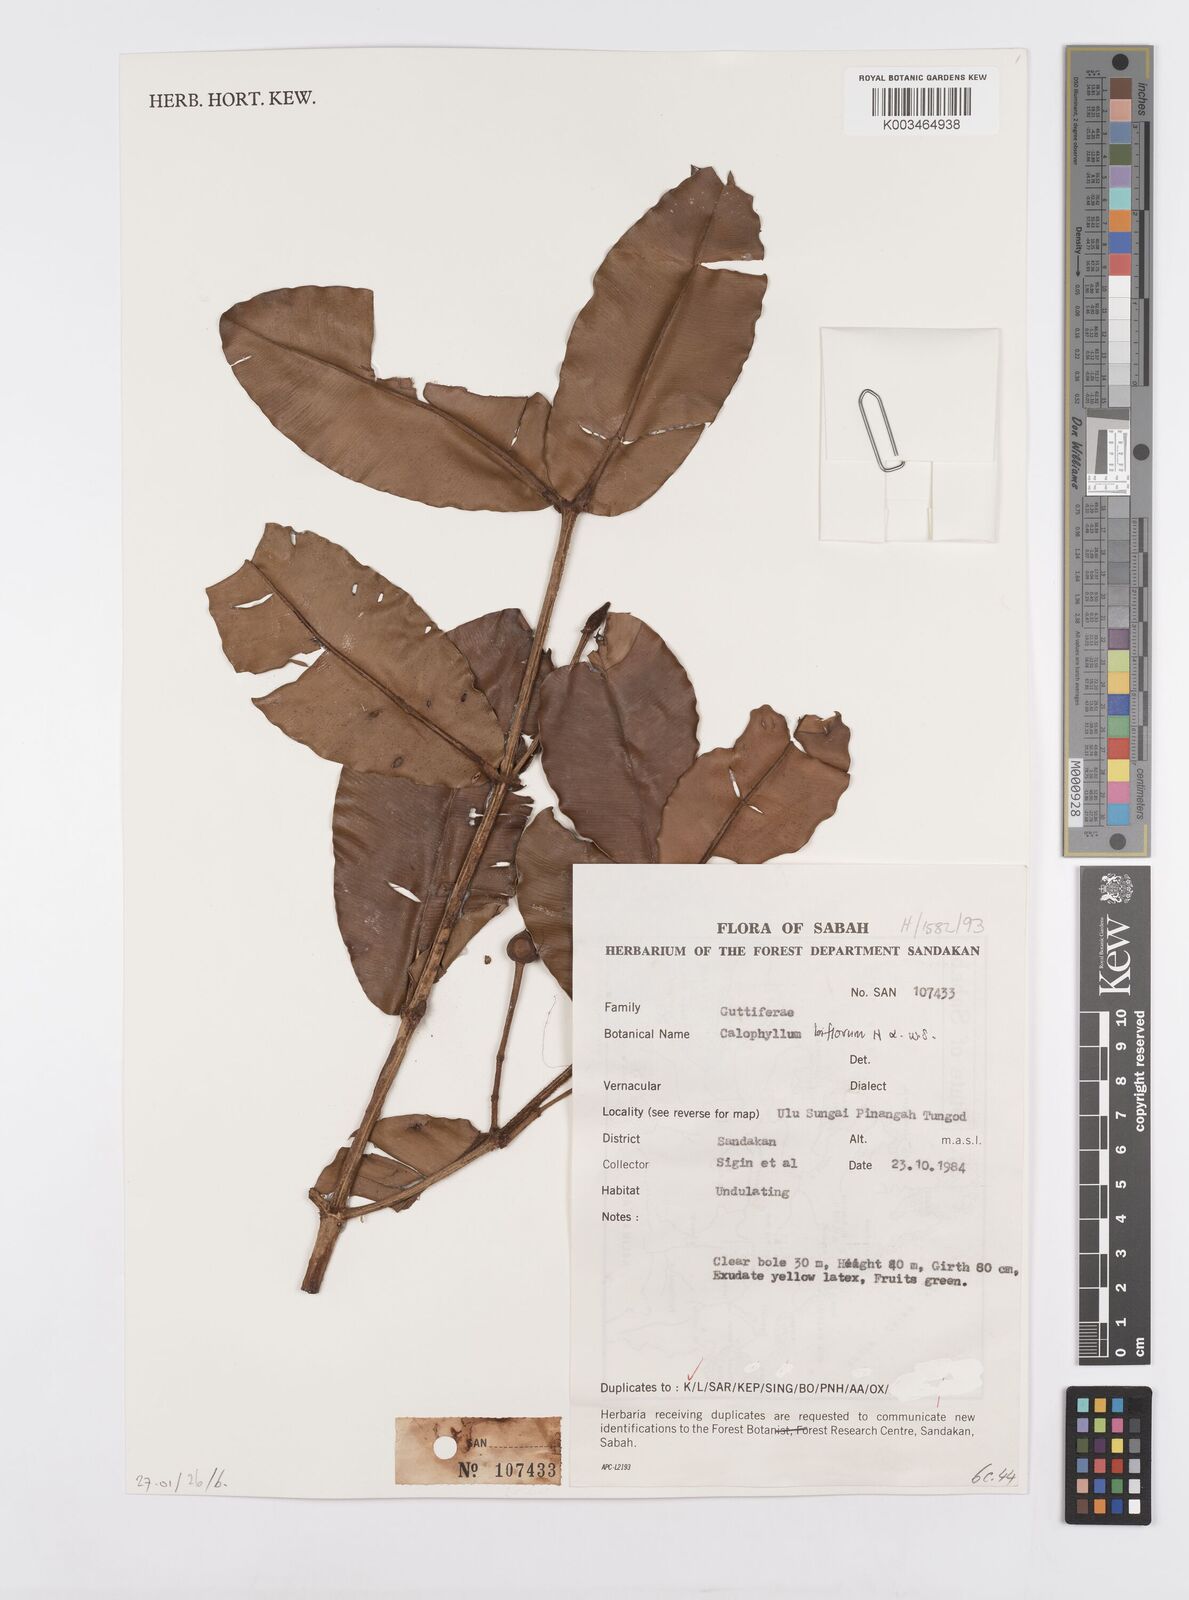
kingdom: Plantae
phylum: Tracheophyta
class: Magnoliopsida
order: Malpighiales
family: Calophyllaceae
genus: Calophyllum
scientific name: Calophyllum biflorum
